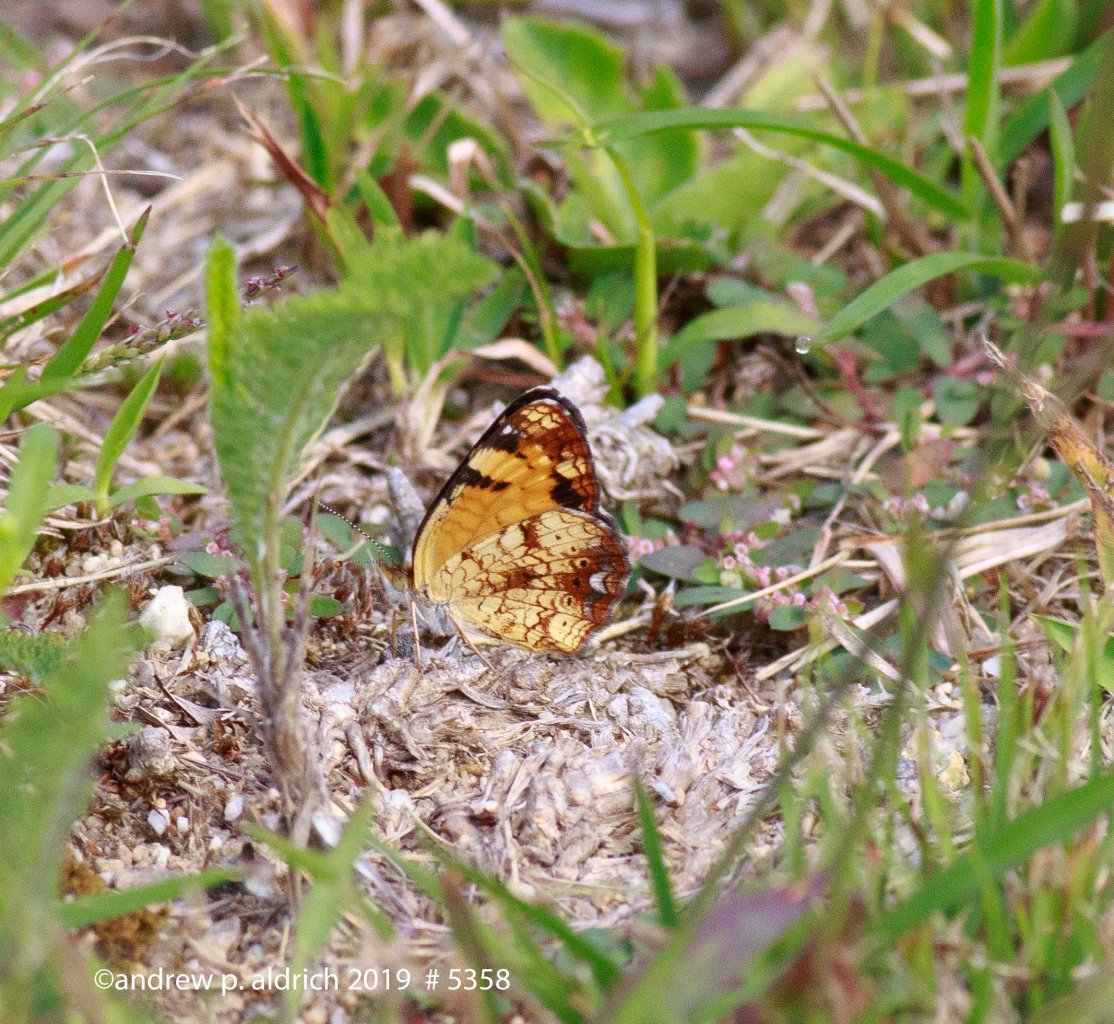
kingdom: Animalia
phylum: Arthropoda
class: Insecta
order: Lepidoptera
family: Nymphalidae
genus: Phyciodes
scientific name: Phyciodes tharos
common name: Pearl Crescent
